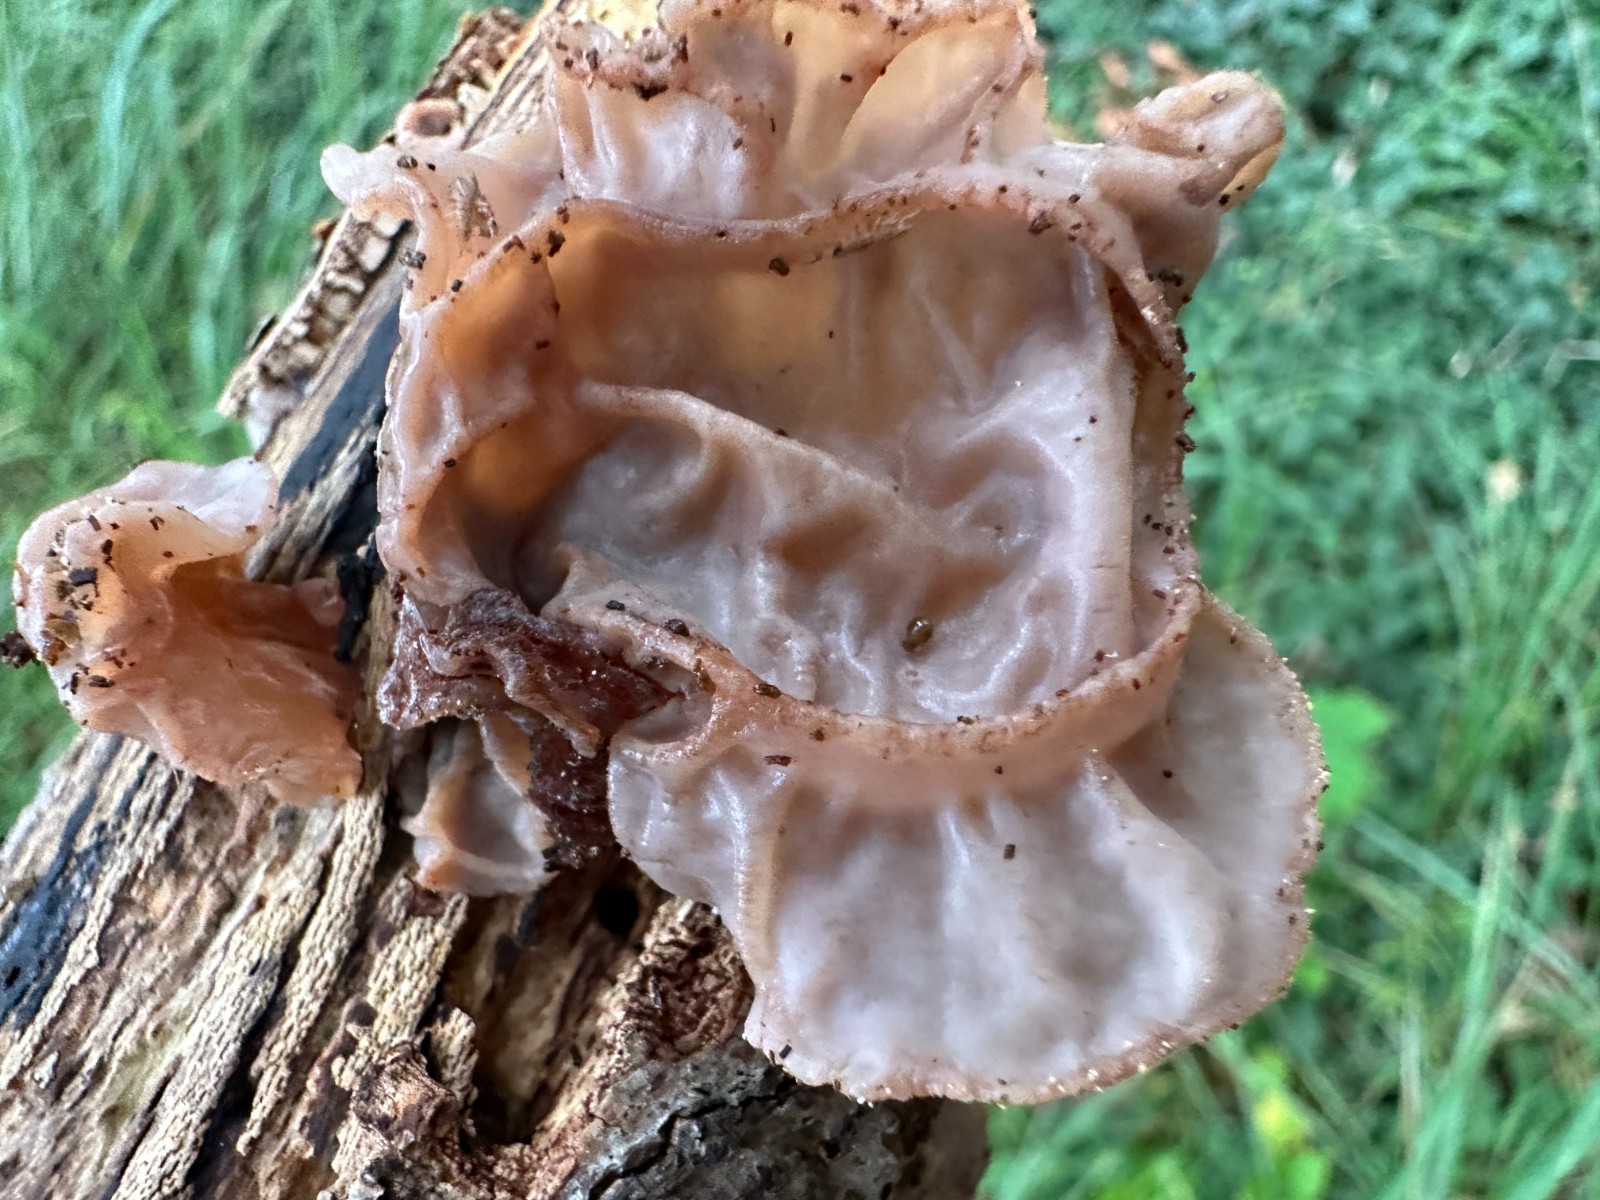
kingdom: Fungi
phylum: Basidiomycota
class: Agaricomycetes
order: Auriculariales
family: Auriculariaceae
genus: Auricularia
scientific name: Auricularia auricula-judae
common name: almindelig judasøre
